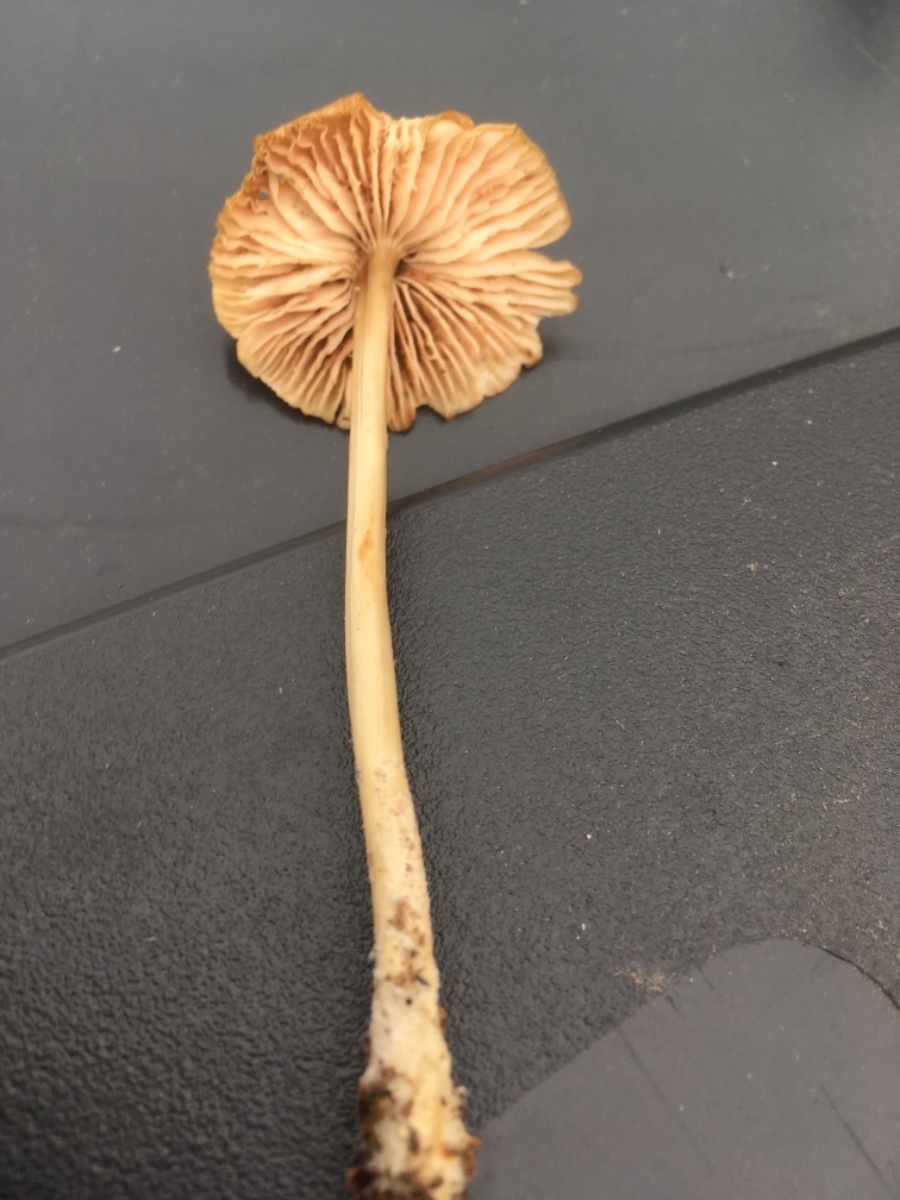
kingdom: Fungi
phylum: Basidiomycota
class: Agaricomycetes
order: Agaricales
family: Mycenaceae
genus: Mycena
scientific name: Mycena galericulata
